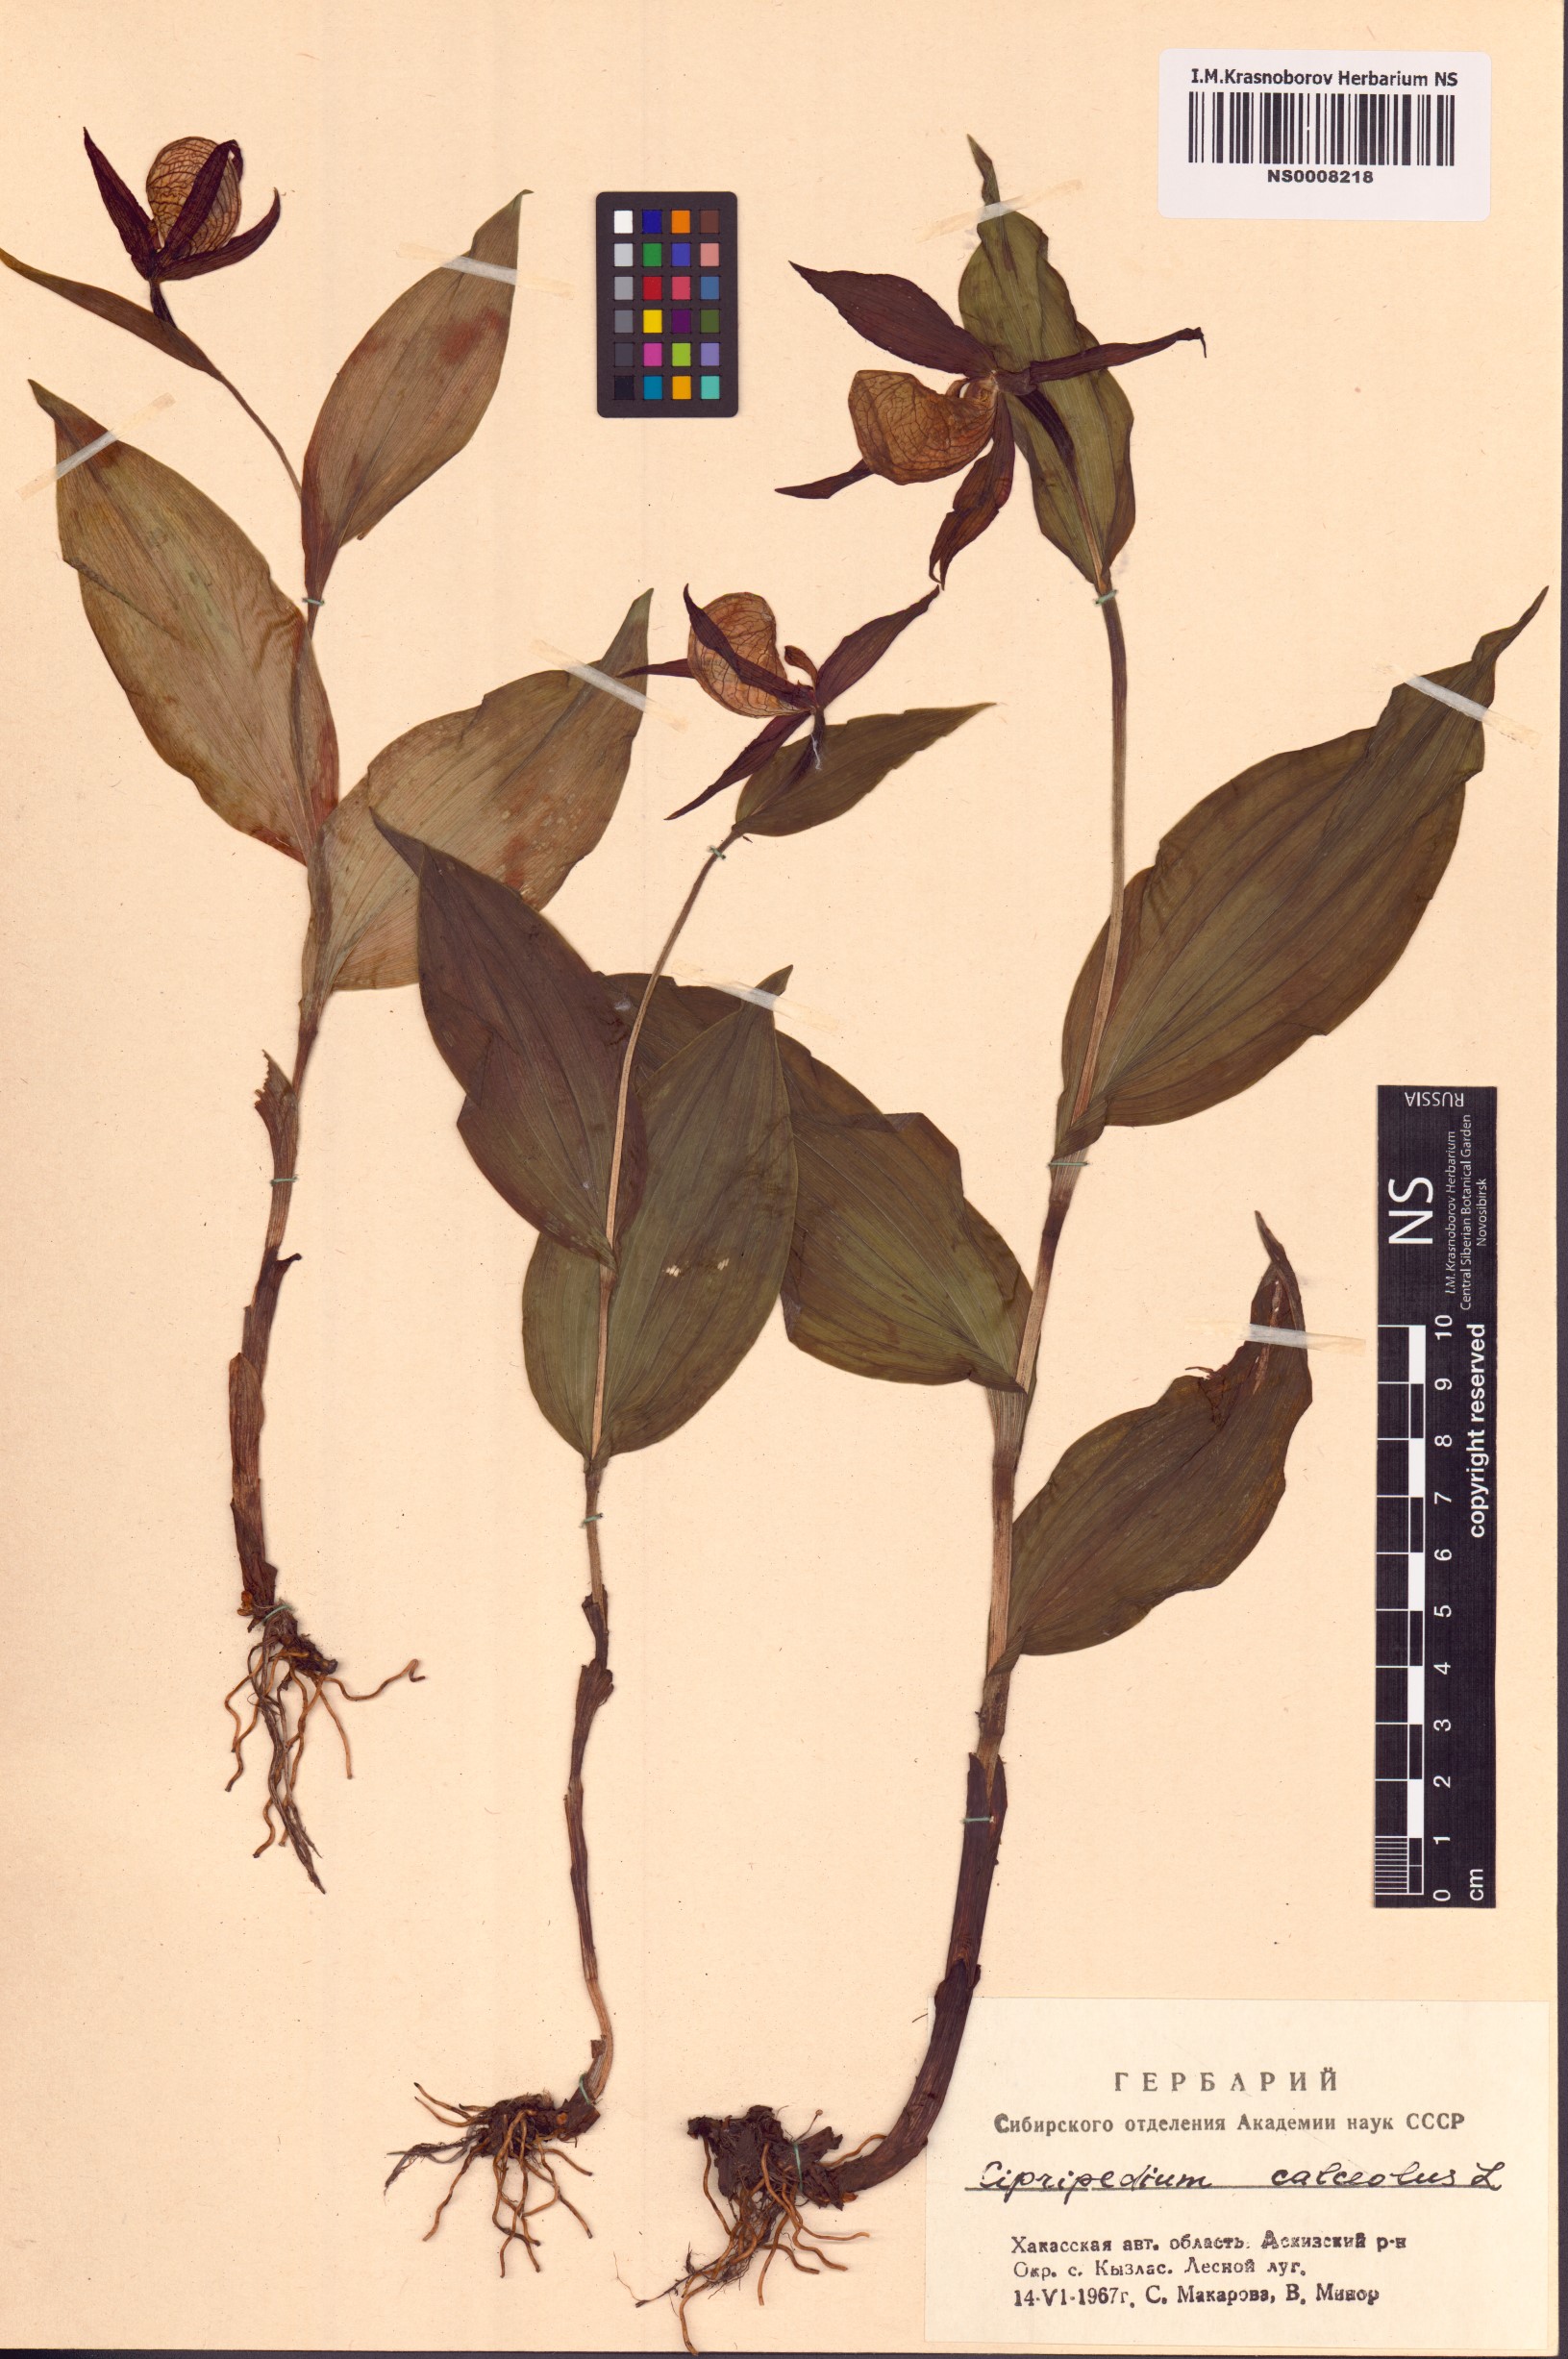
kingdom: Plantae
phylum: Tracheophyta
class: Liliopsida
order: Asparagales
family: Orchidaceae
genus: Cypripedium
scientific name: Cypripedium calceolus
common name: Lady's-slipper
